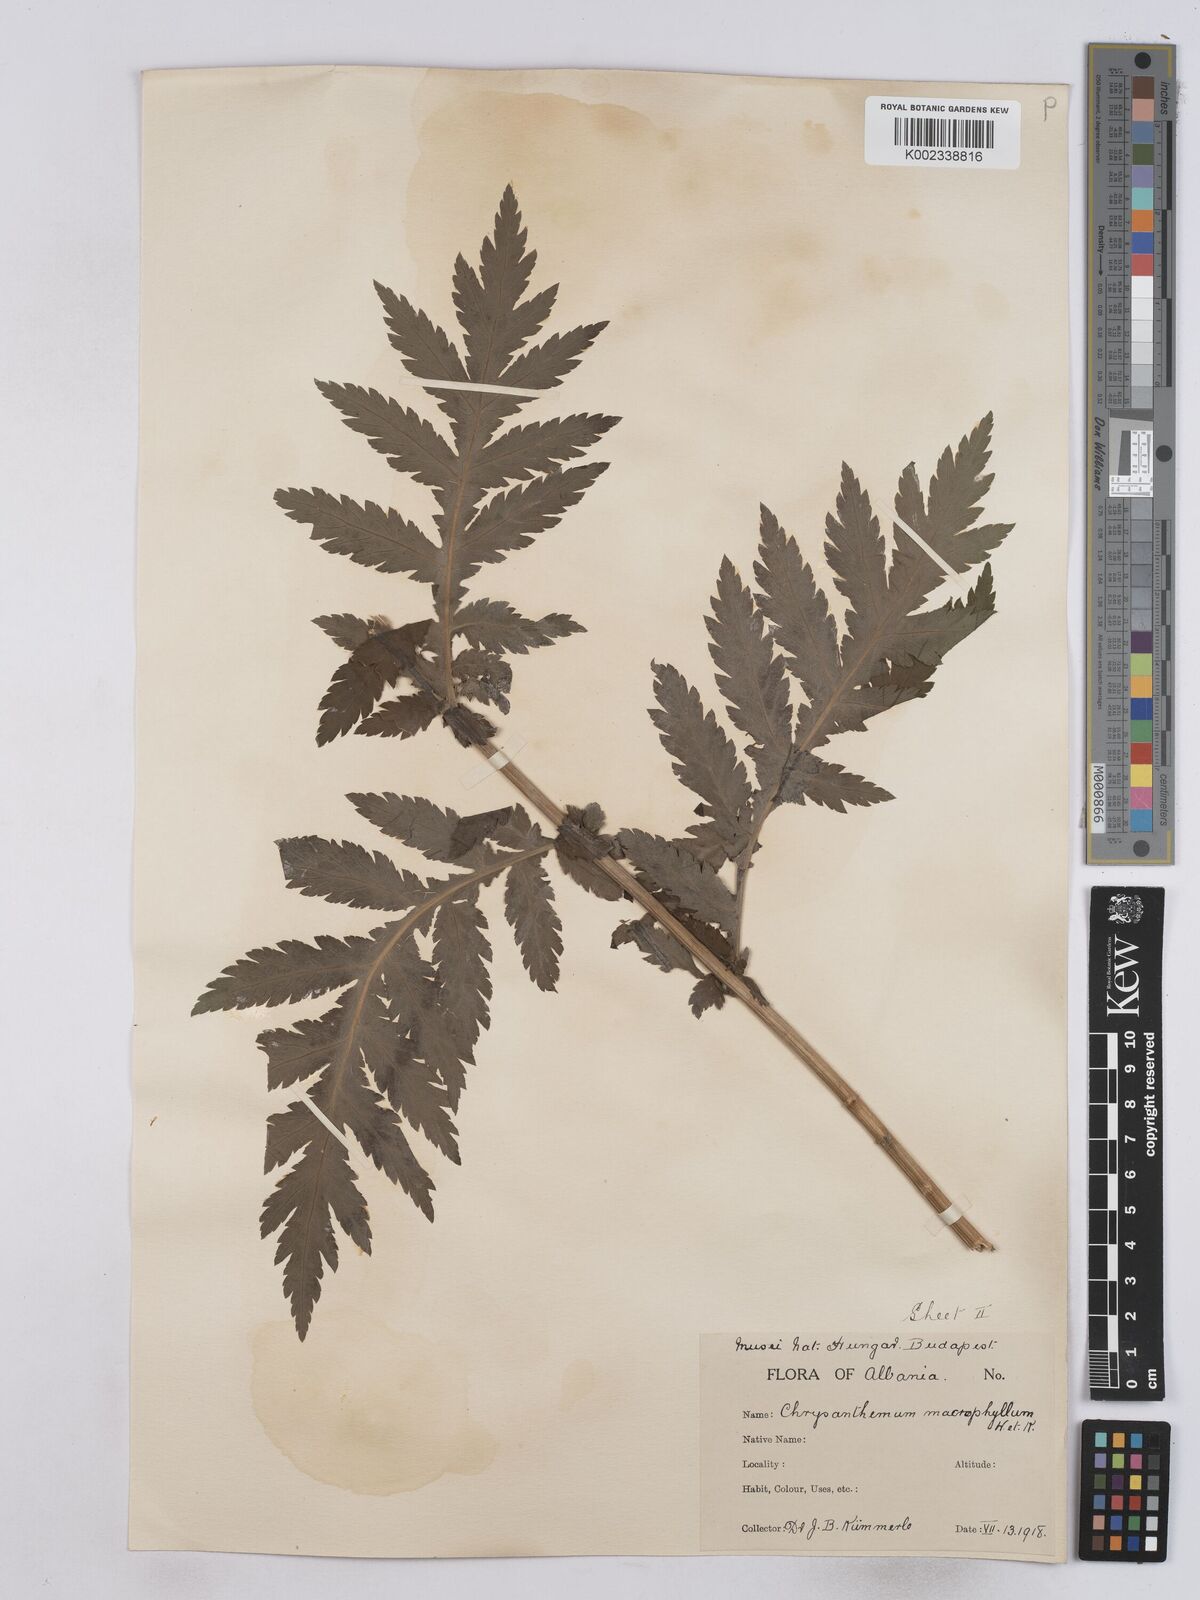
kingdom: Plantae
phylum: Tracheophyta
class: Magnoliopsida
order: Asterales
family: Asteraceae
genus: Tanacetum
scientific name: Tanacetum macrophyllum
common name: Rayed tansy
